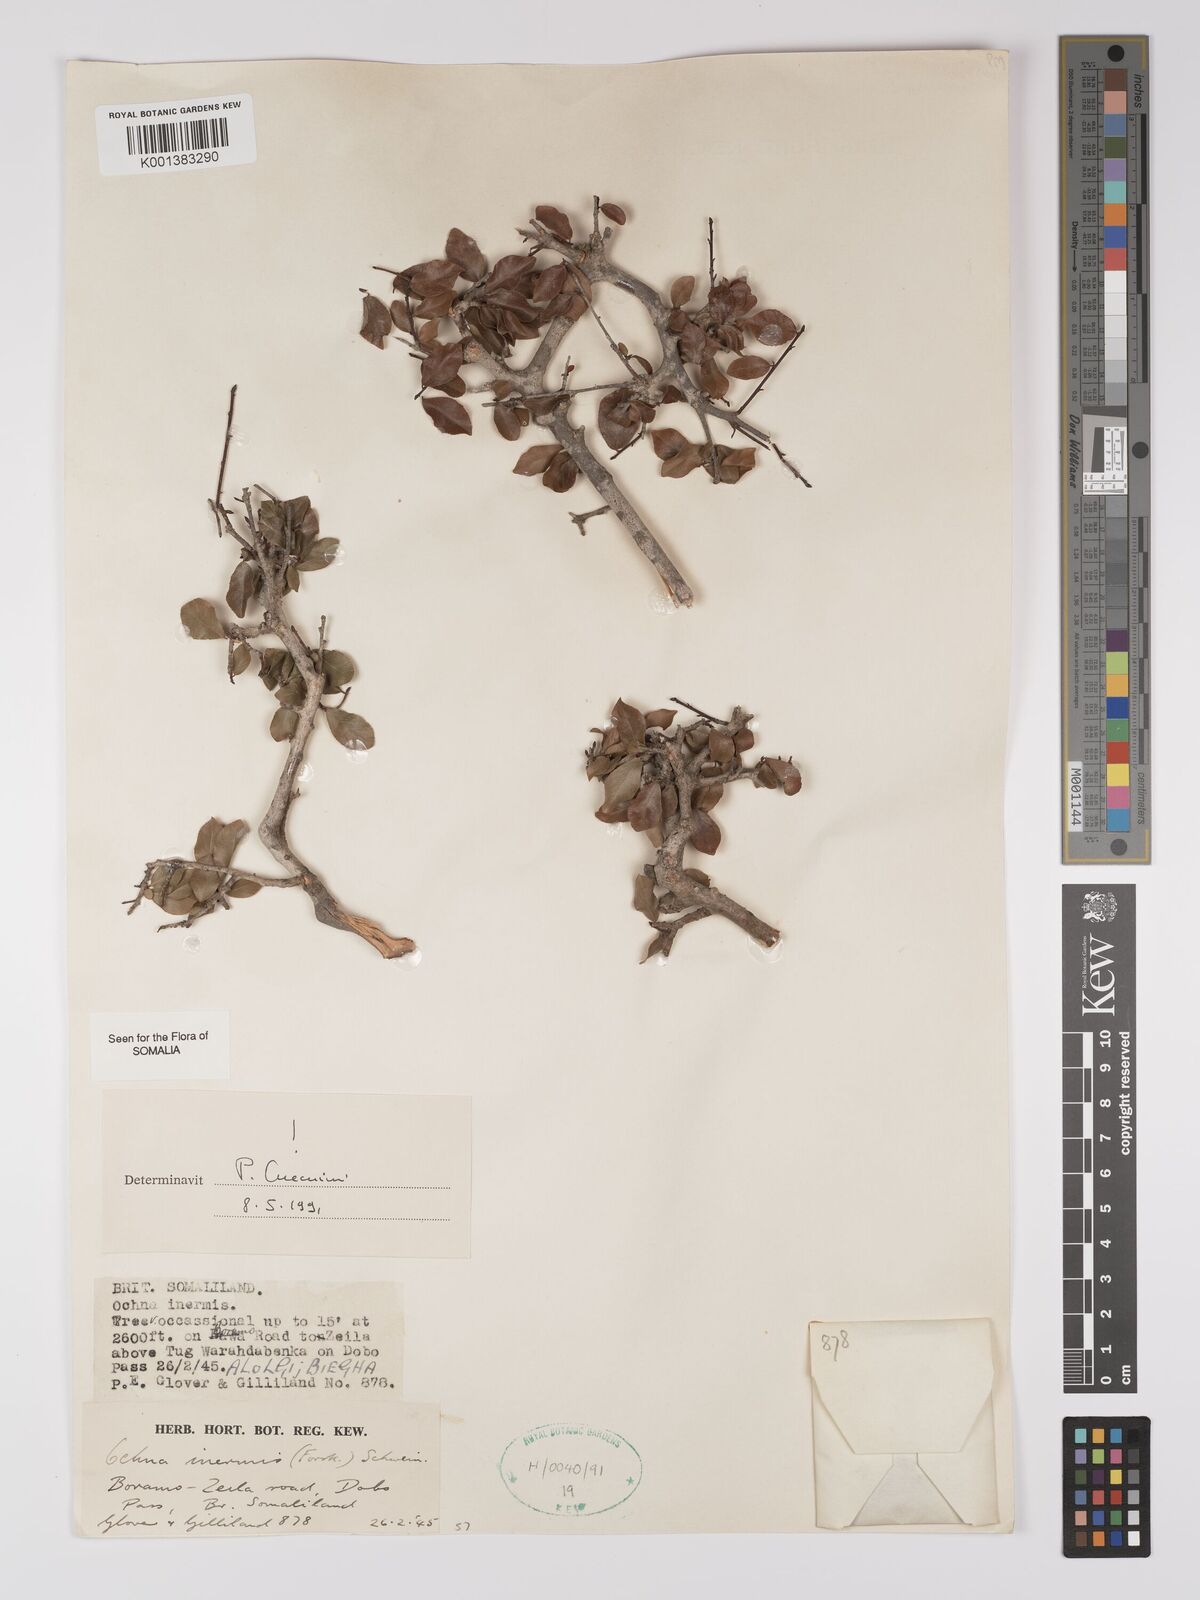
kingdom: Plantae
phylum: Tracheophyta
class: Magnoliopsida
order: Malpighiales
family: Ochnaceae
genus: Ochna
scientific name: Ochna inermis
